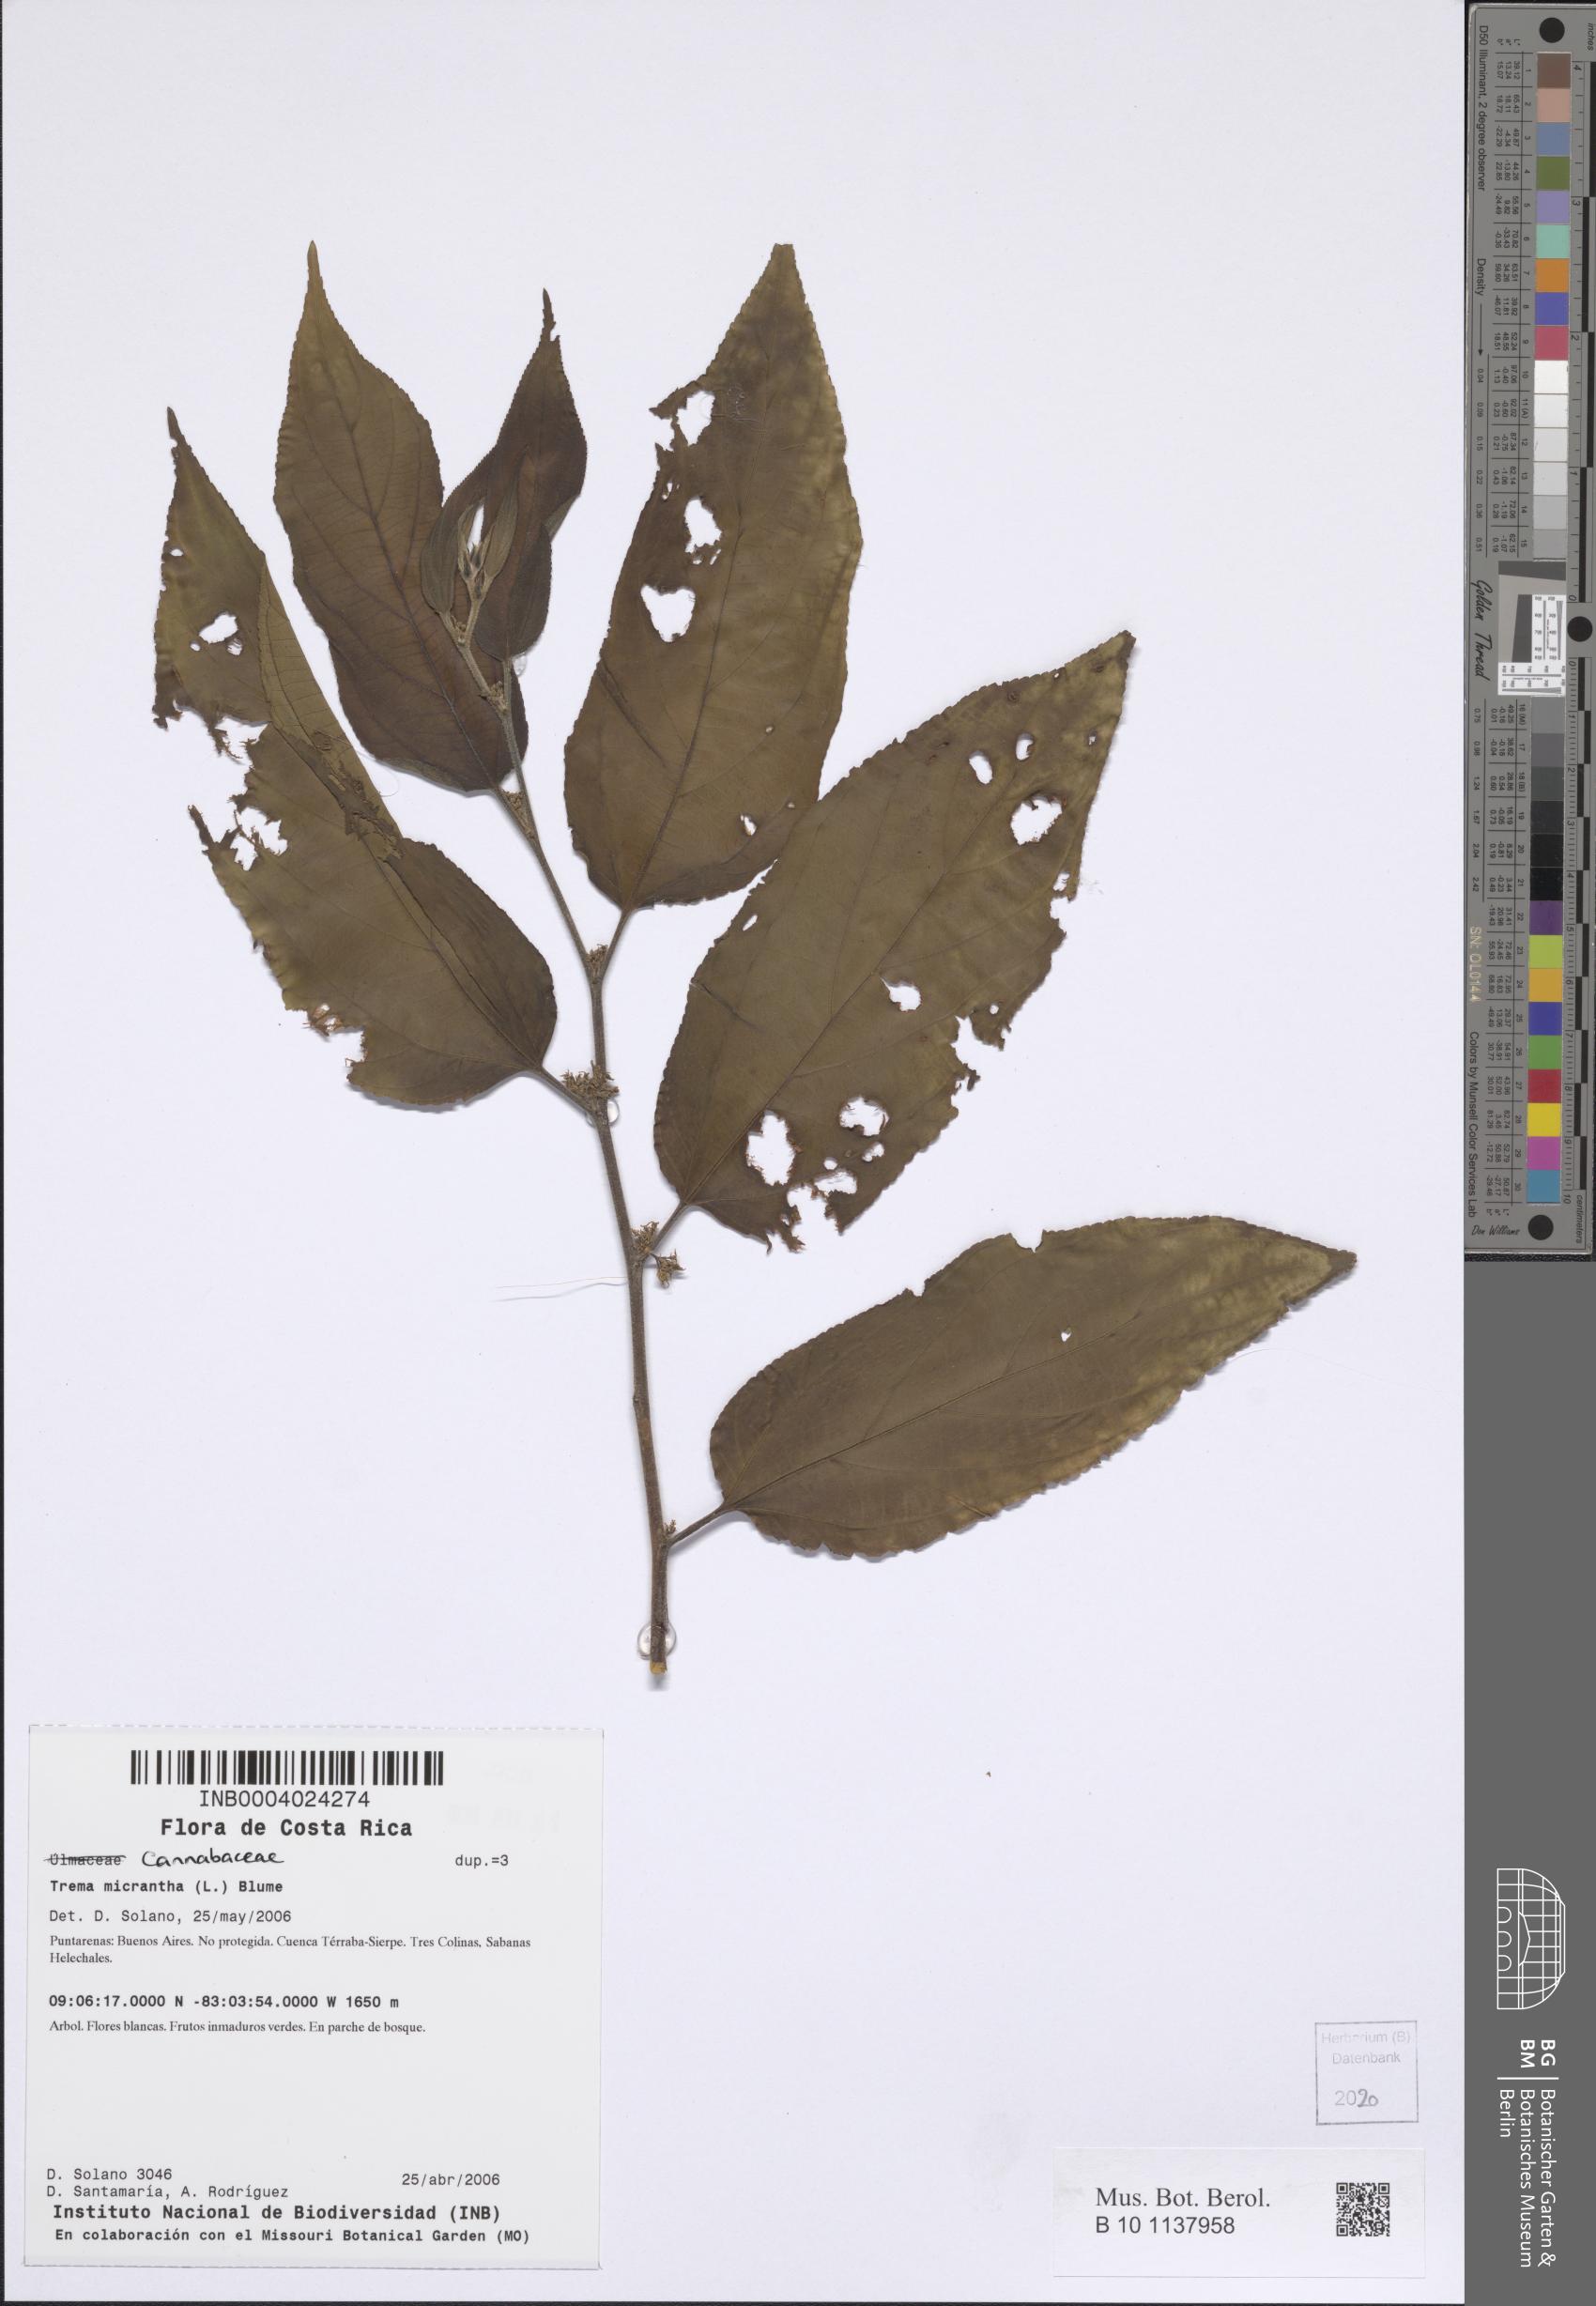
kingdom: Plantae
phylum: Tracheophyta
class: Magnoliopsida
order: Rosales
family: Cannabaceae
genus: Trema
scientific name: Trema micranthum
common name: Jamaican nettletree
